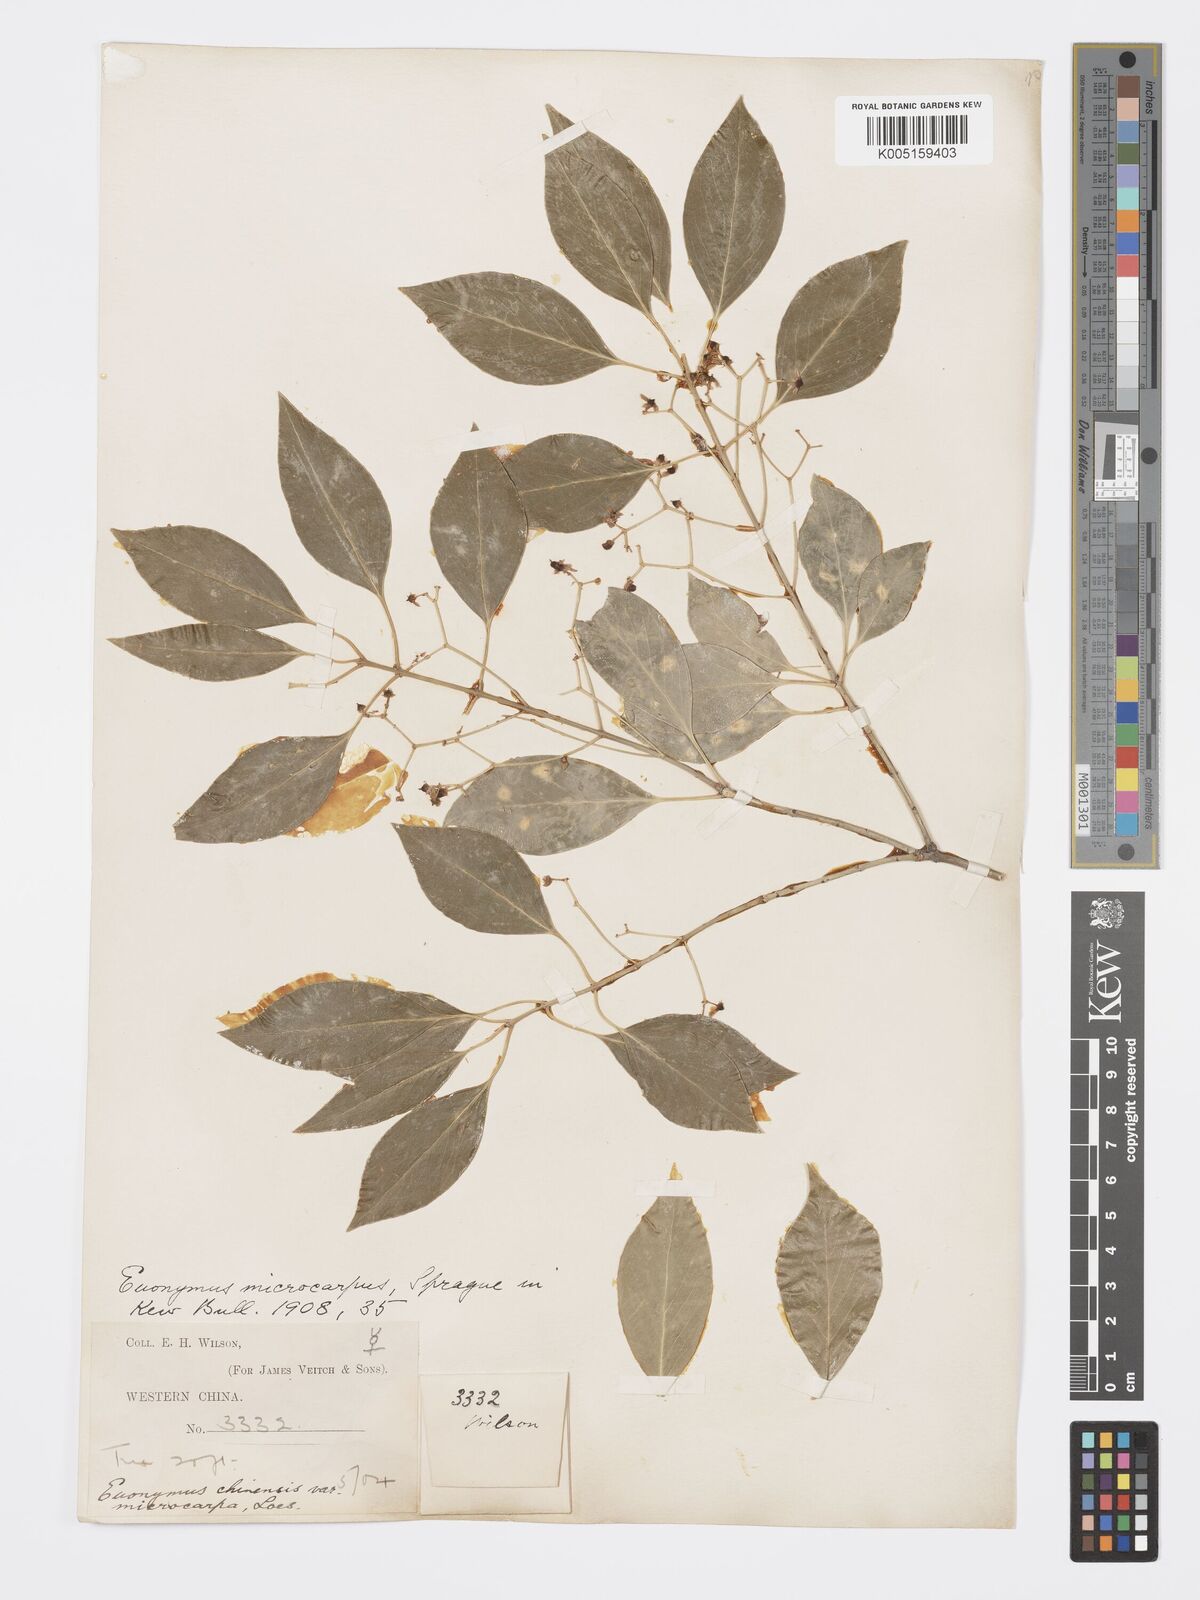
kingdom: Plantae
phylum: Tracheophyta
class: Magnoliopsida
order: Celastrales
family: Celastraceae
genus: Euonymus
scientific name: Euonymus
